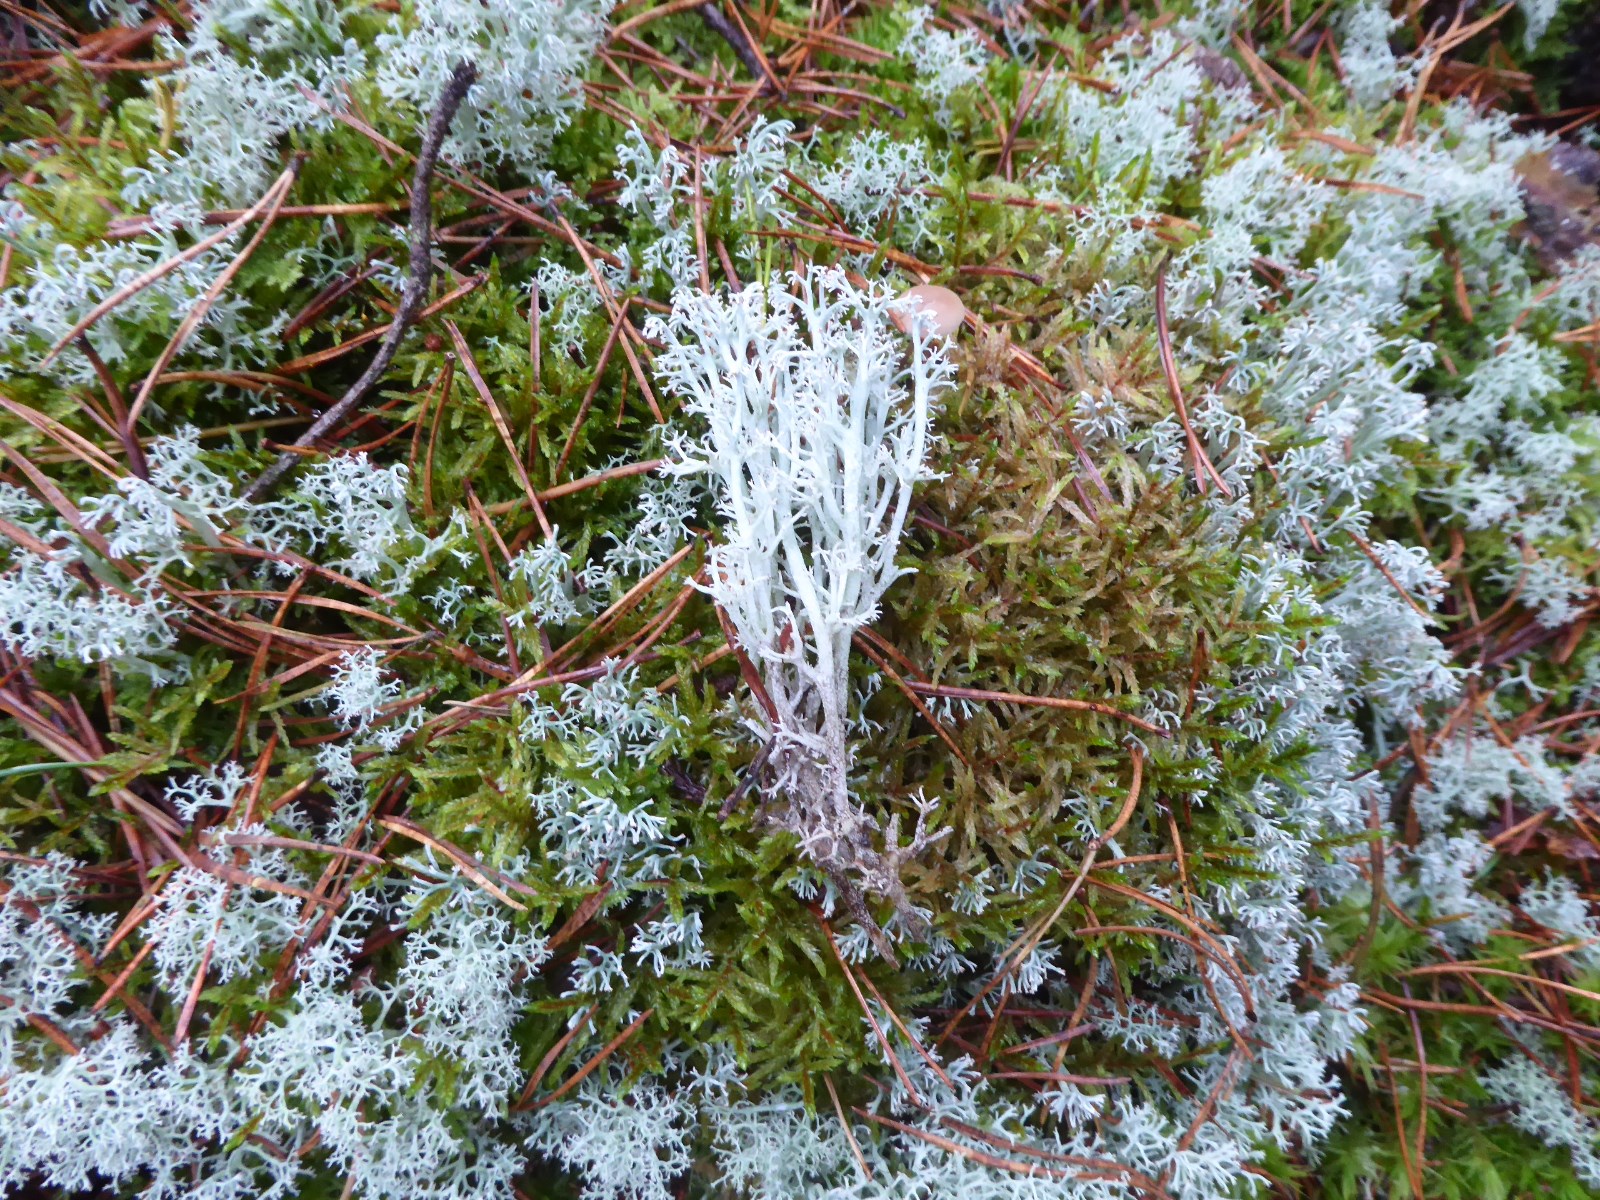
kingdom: Fungi
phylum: Ascomycota
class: Lecanoromycetes
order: Lecanorales
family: Cladoniaceae
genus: Cladonia
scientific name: Cladonia rangiferina
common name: askegrå rensdyrlav
